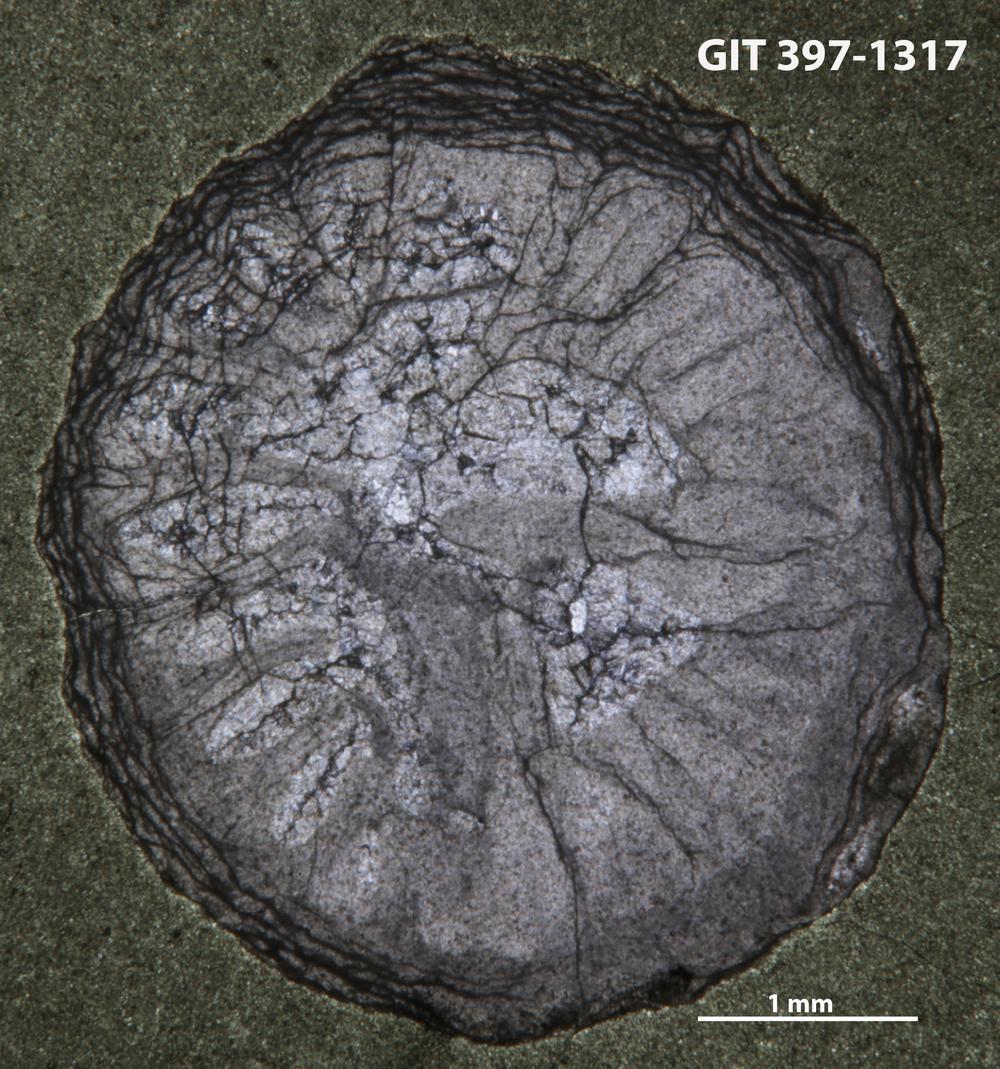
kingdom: Animalia
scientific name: Animalia
